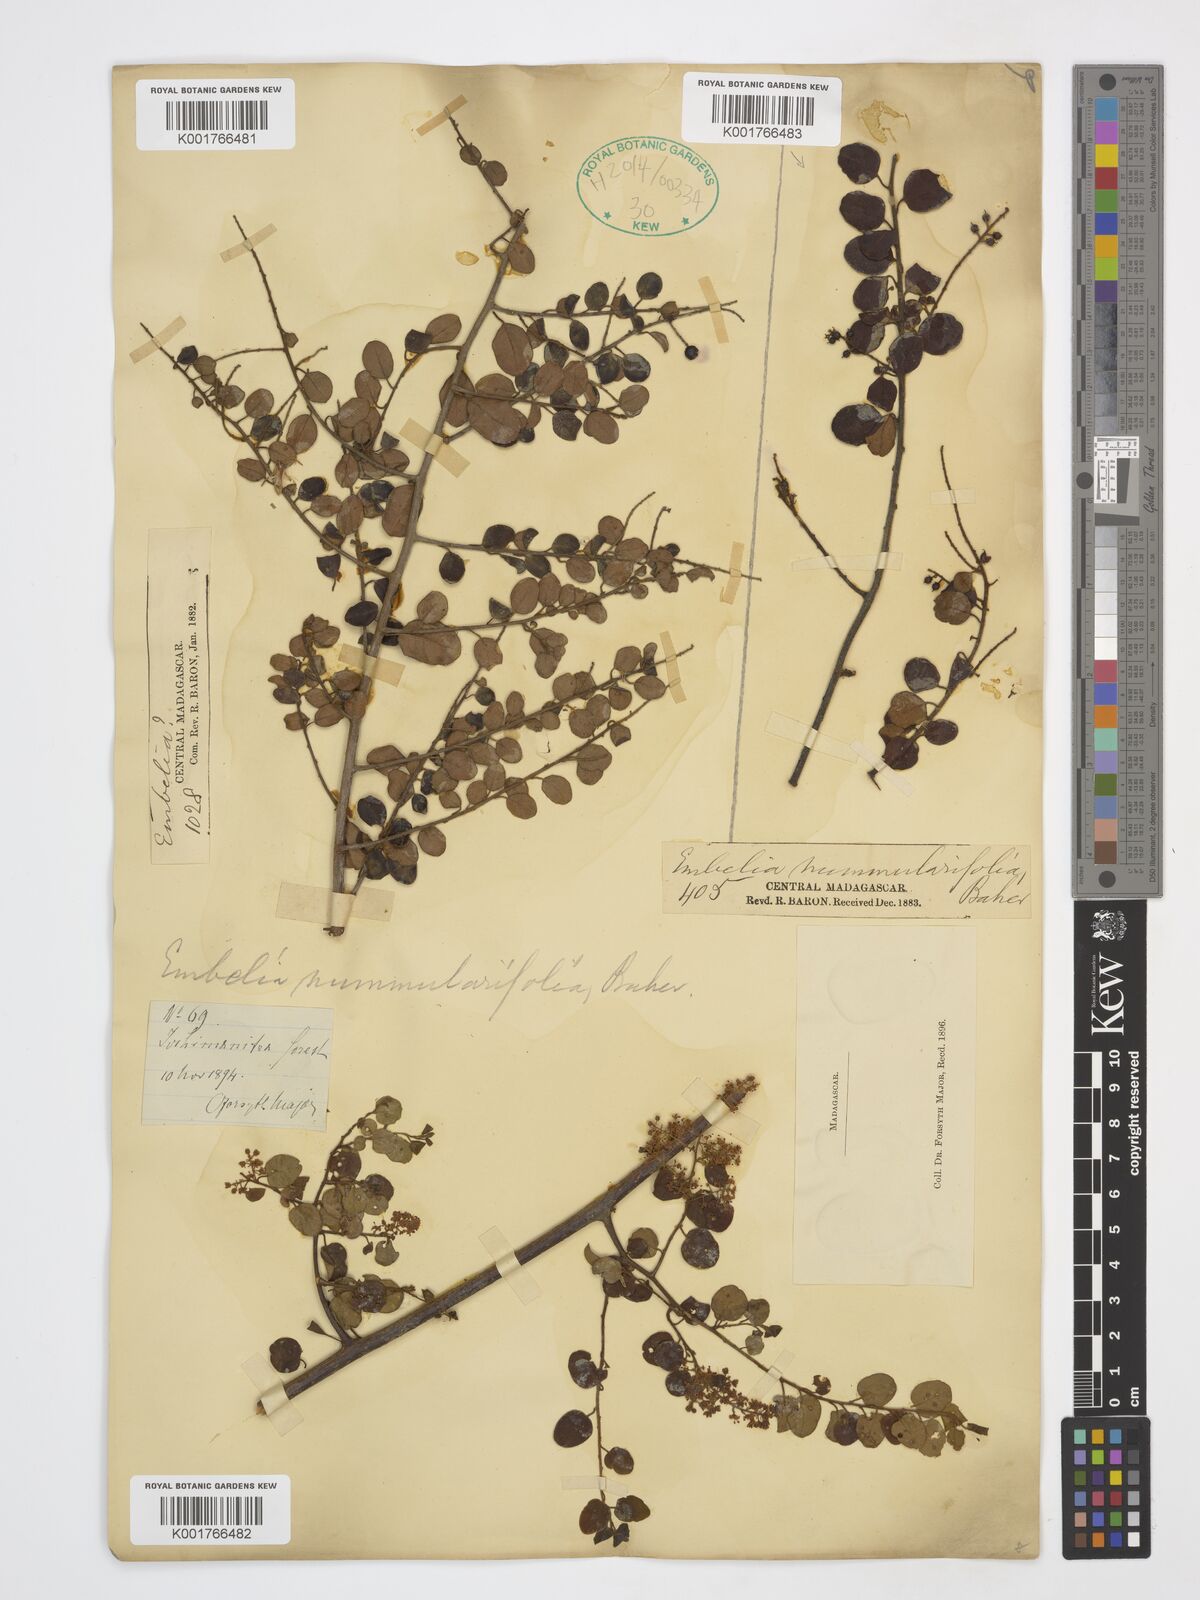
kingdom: Plantae
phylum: Tracheophyta
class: Magnoliopsida
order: Ericales
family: Primulaceae
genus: Embelia
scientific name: Embelia nummulariifolia
